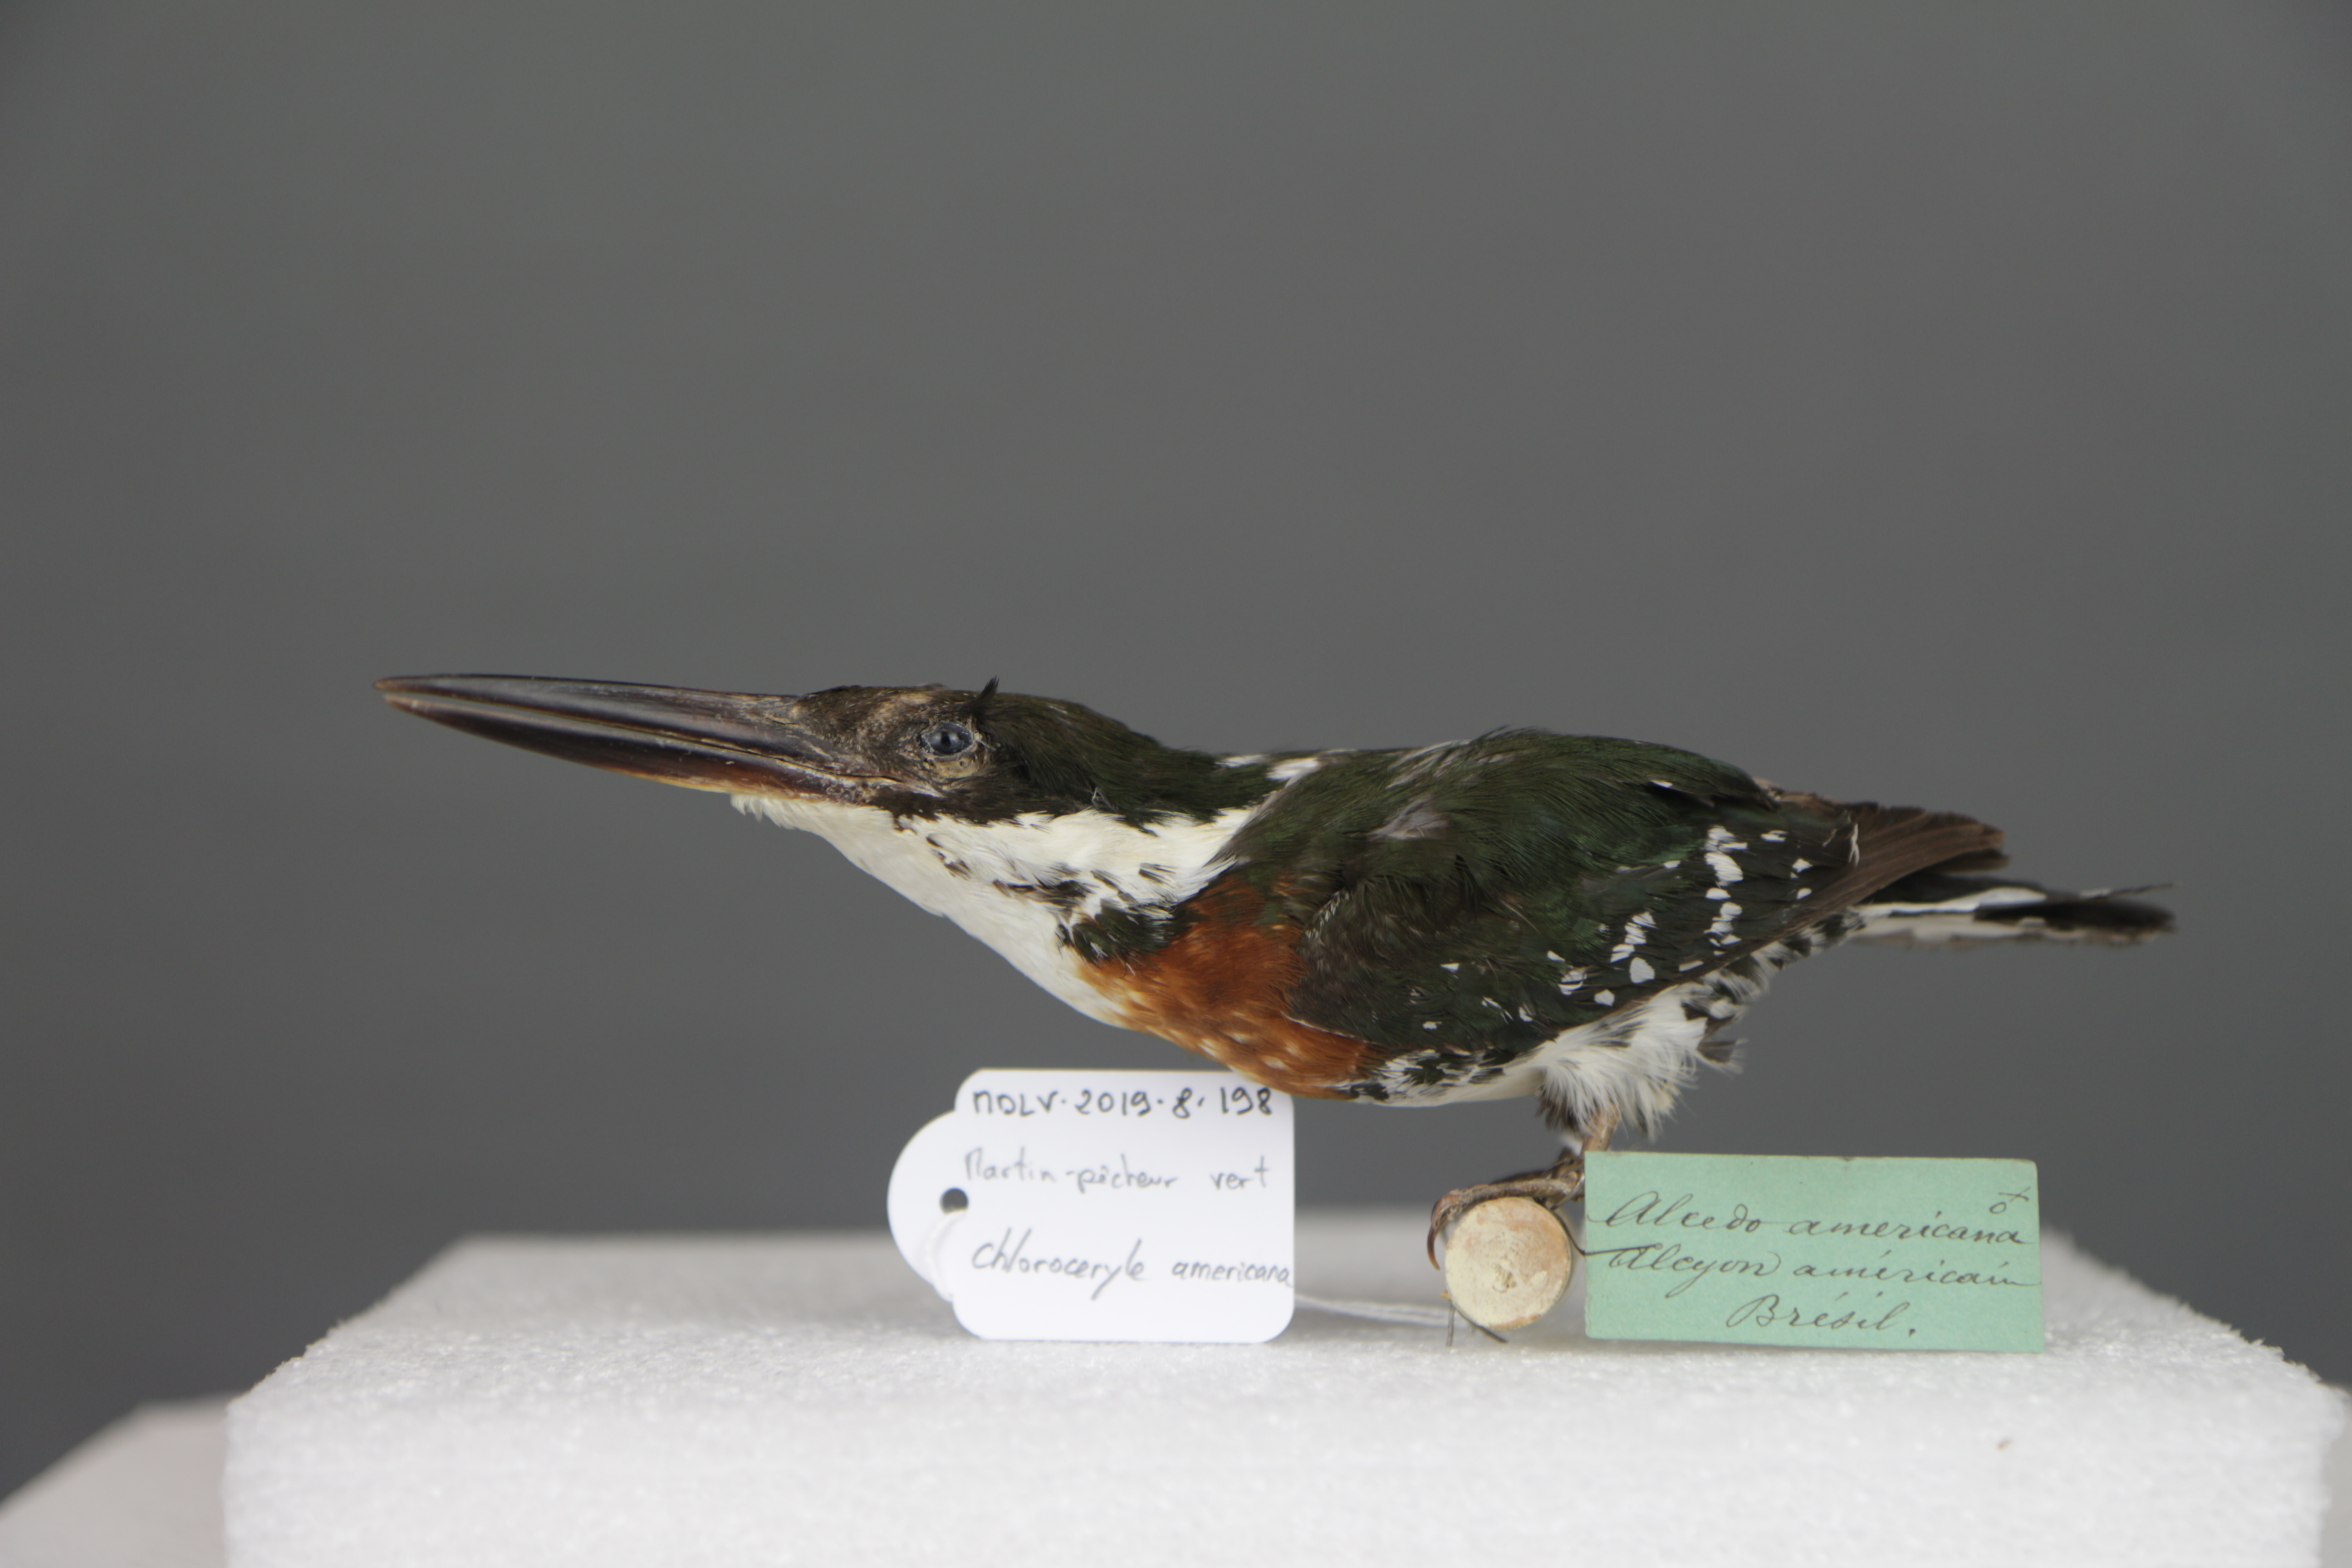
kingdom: Animalia
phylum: Chordata
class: Aves
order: Coraciiformes
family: Alcedinidae
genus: Chloroceryle
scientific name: Chloroceryle americana
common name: Green kingfisher
